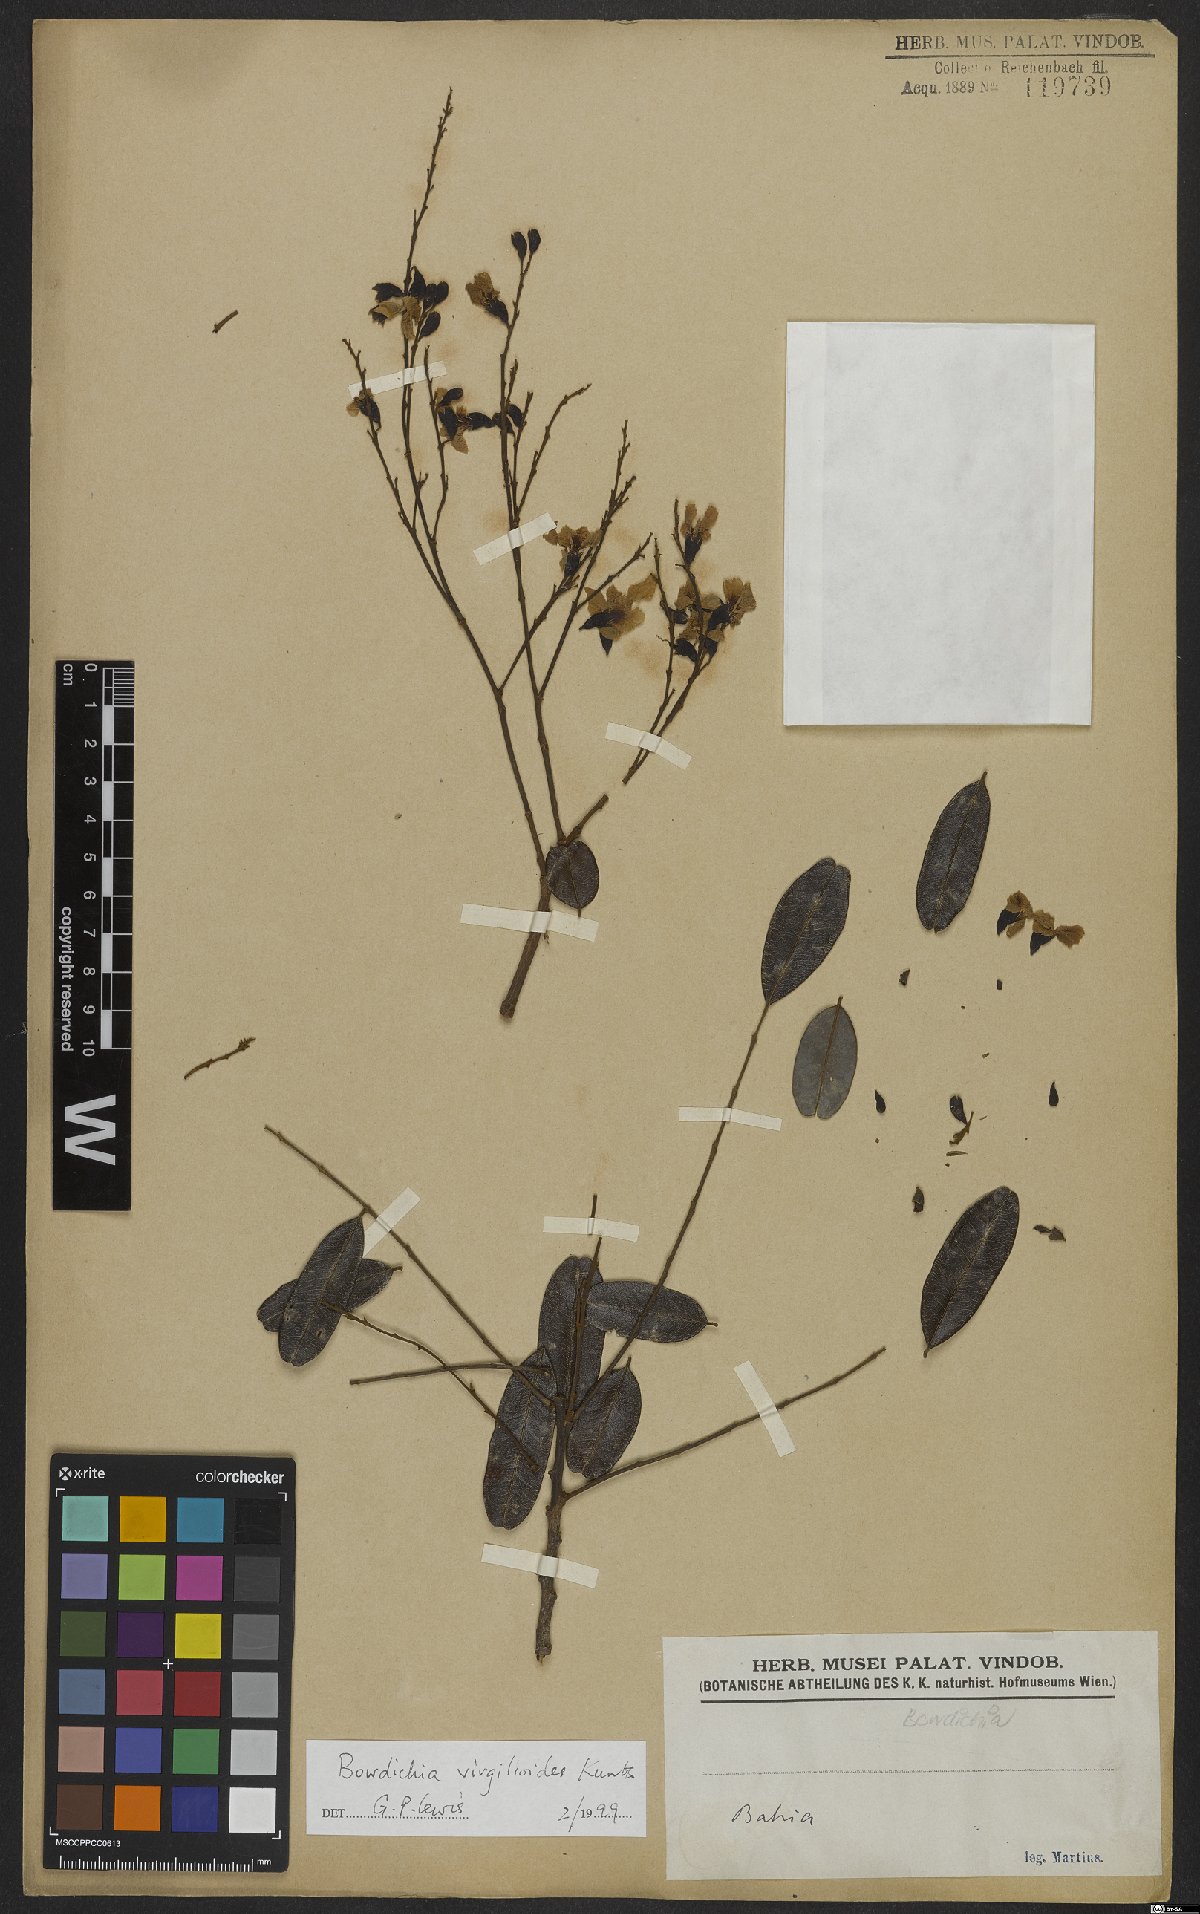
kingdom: Plantae
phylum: Tracheophyta
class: Magnoliopsida
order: Fabales
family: Fabaceae
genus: Bowdichia
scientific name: Bowdichia virgilioides
